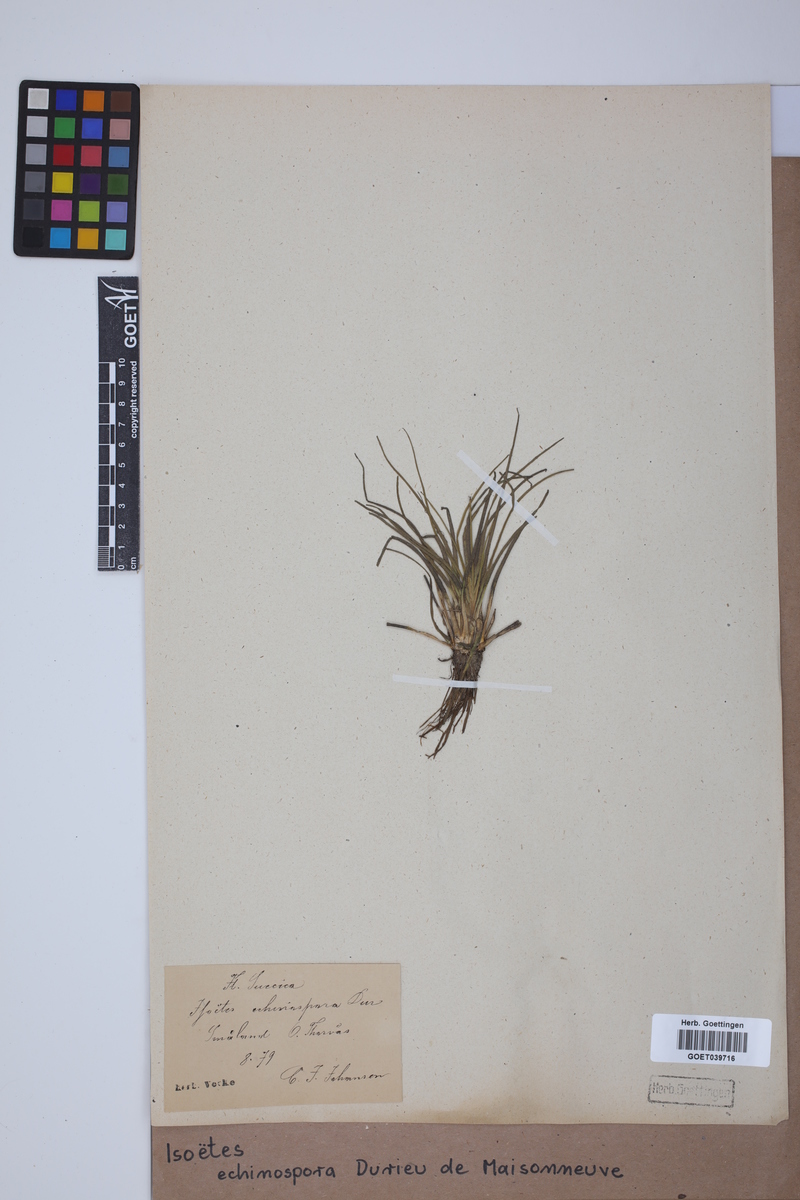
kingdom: Plantae
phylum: Tracheophyta
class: Lycopodiopsida
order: Isoetales
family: Isoetaceae
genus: Isoetes
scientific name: Isoetes echinospora
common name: Spring quillwort
